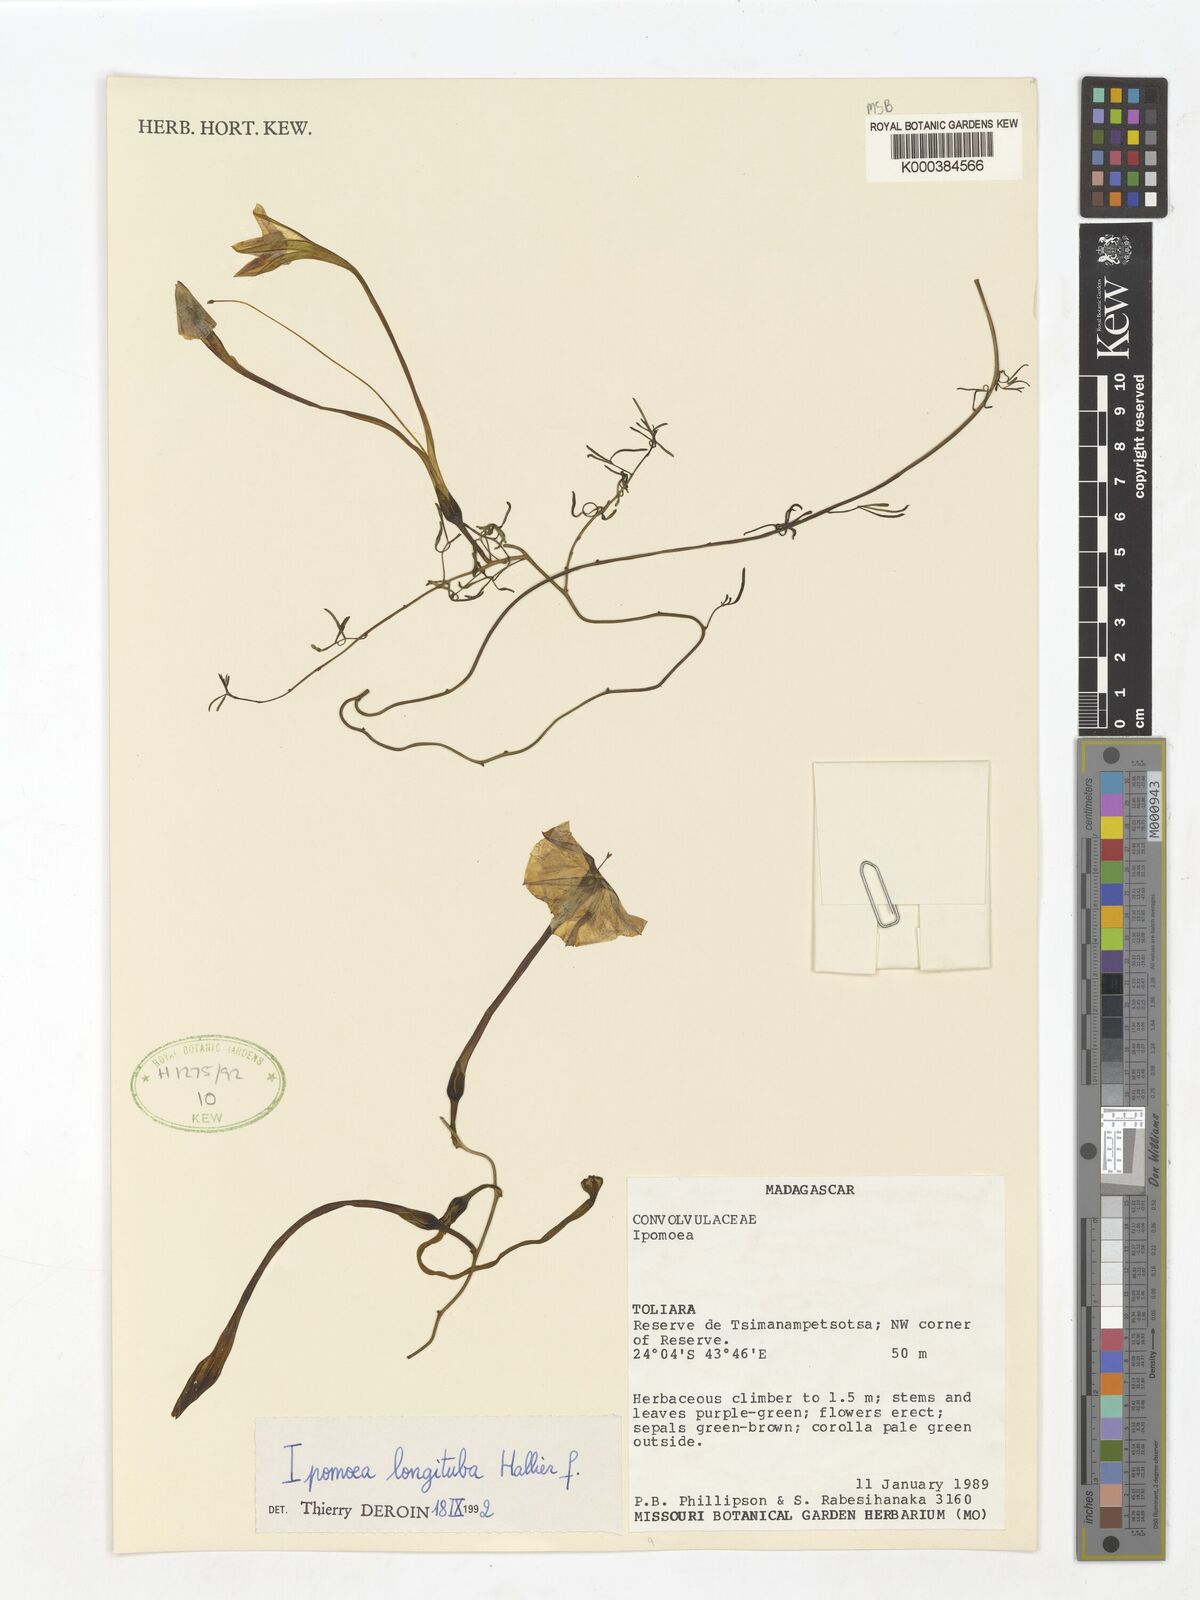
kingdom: Plantae
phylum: Tracheophyta
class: Magnoliopsida
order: Solanales
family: Convolvulaceae
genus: Ipomoea
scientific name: Ipomoea longituba
